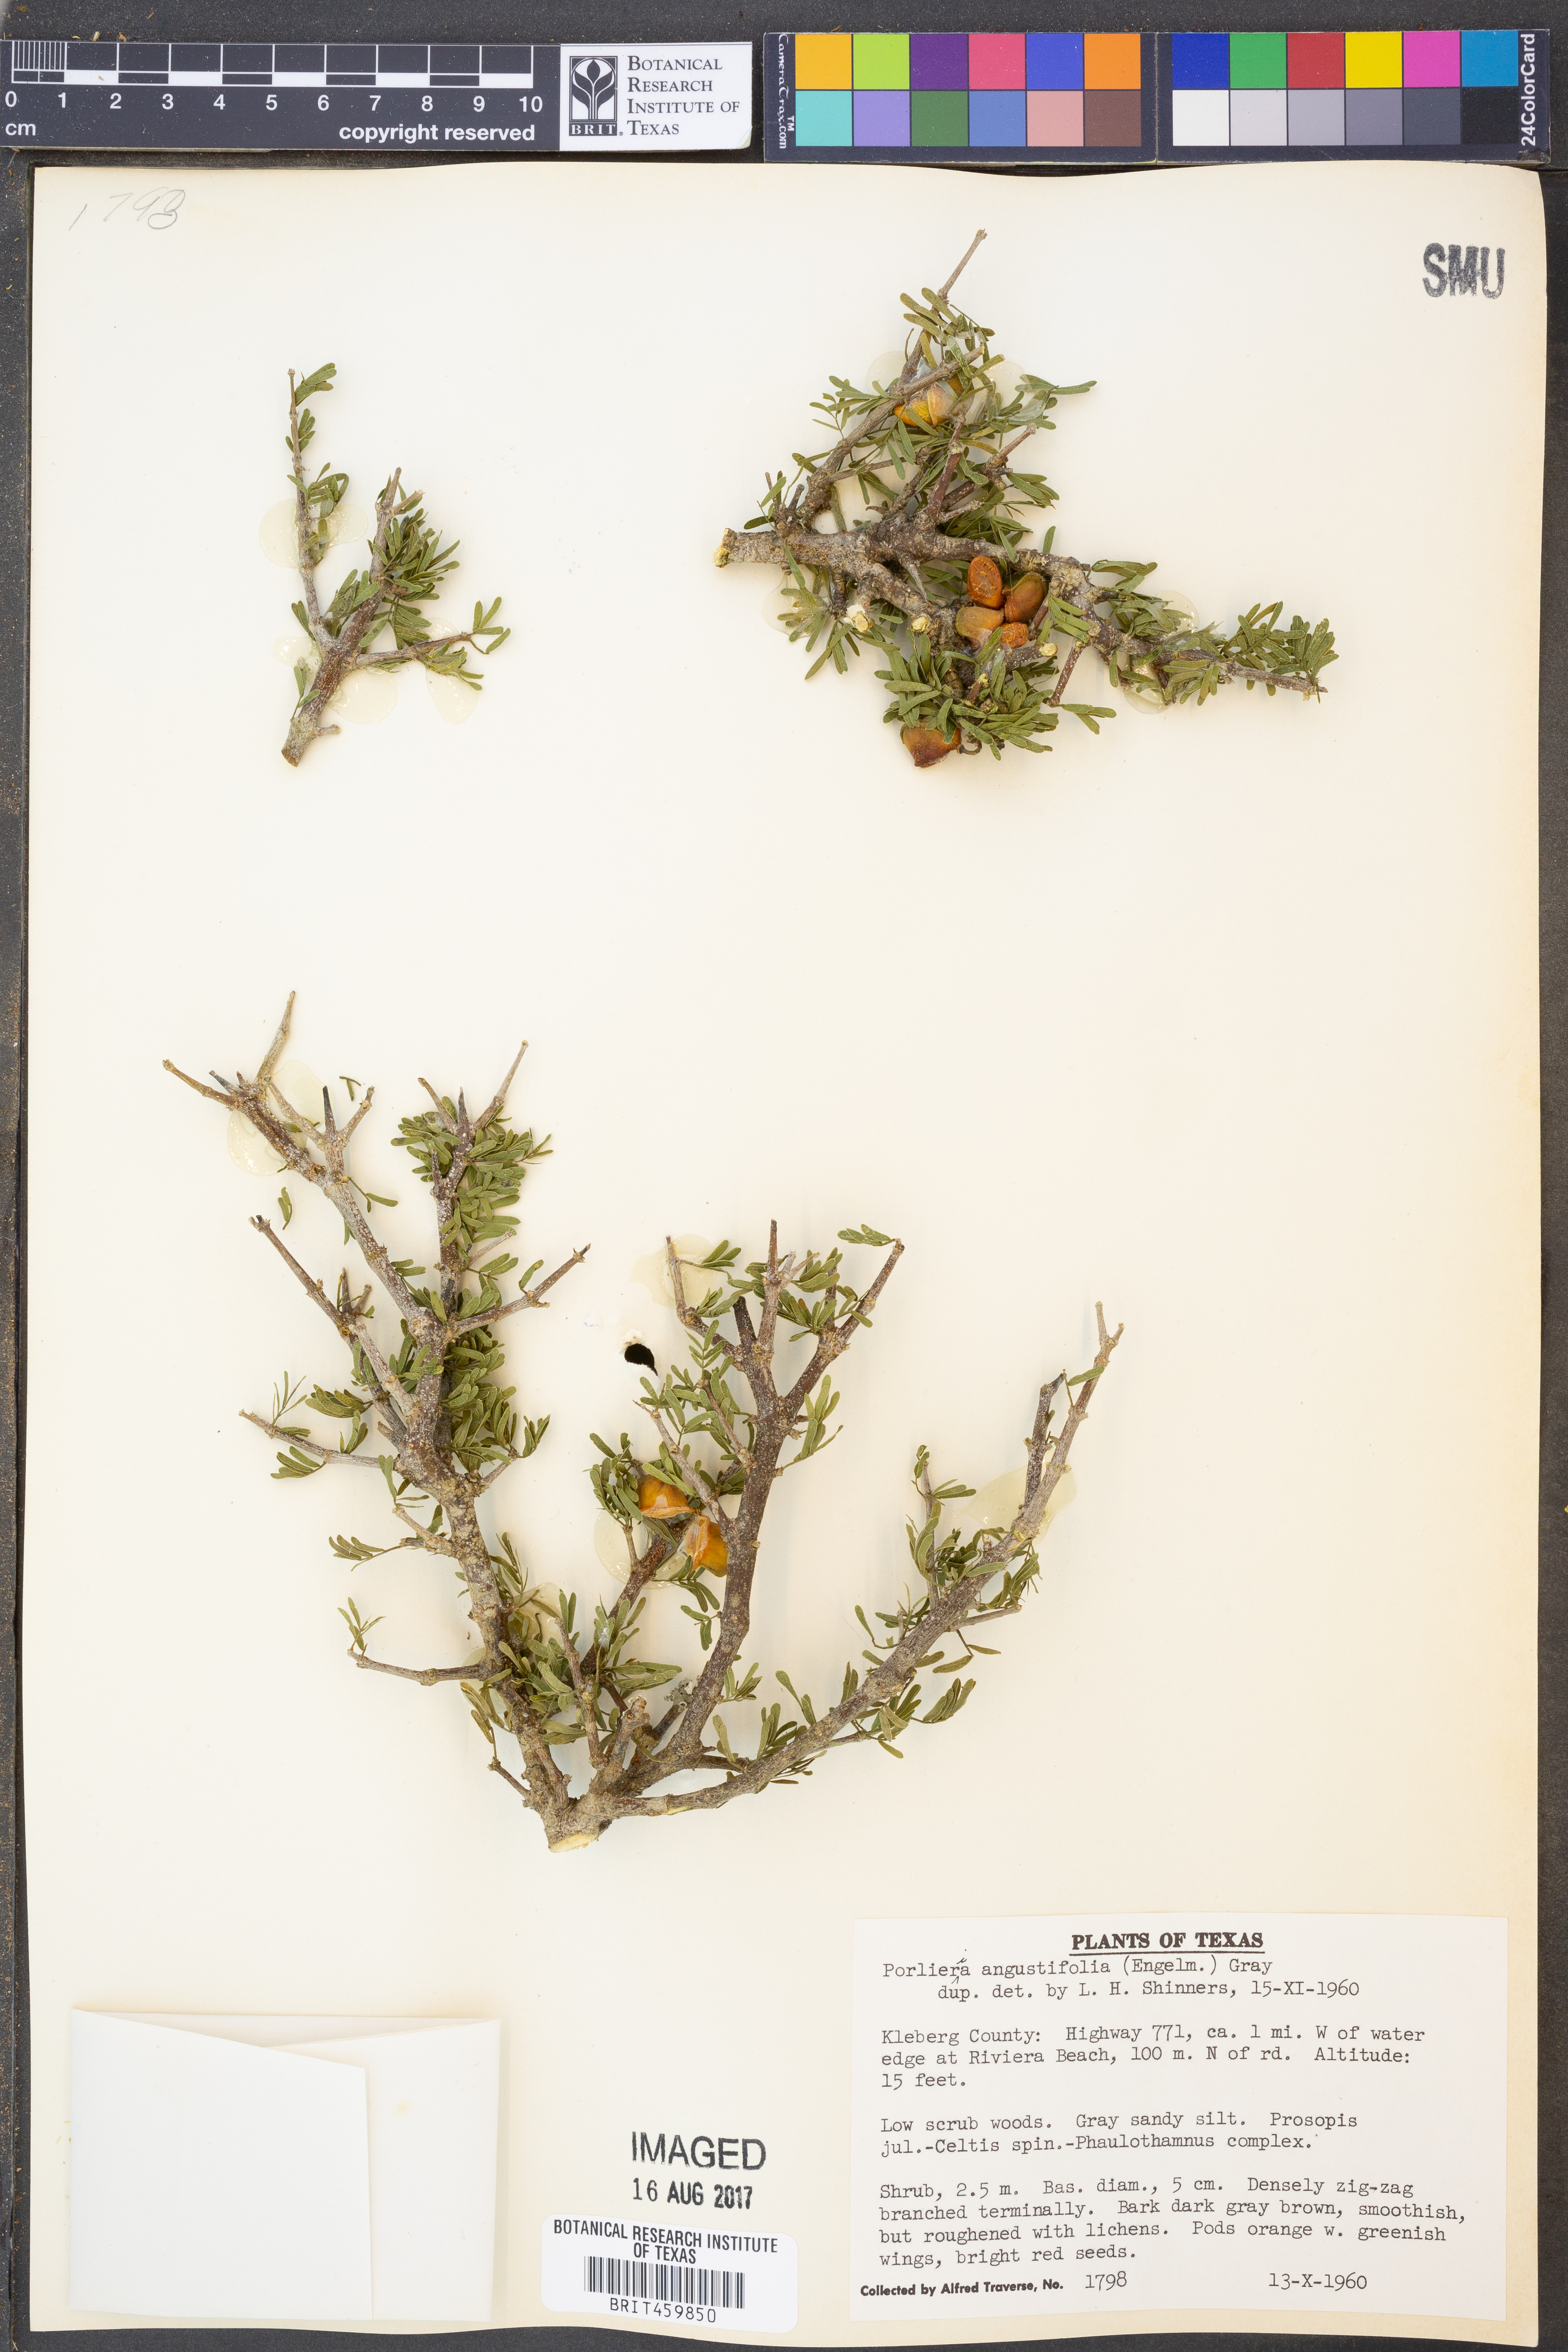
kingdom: Plantae
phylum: Tracheophyta
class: Magnoliopsida
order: Zygophyllales
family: Zygophyllaceae
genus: Porlieria
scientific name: Porlieria angustifolia
